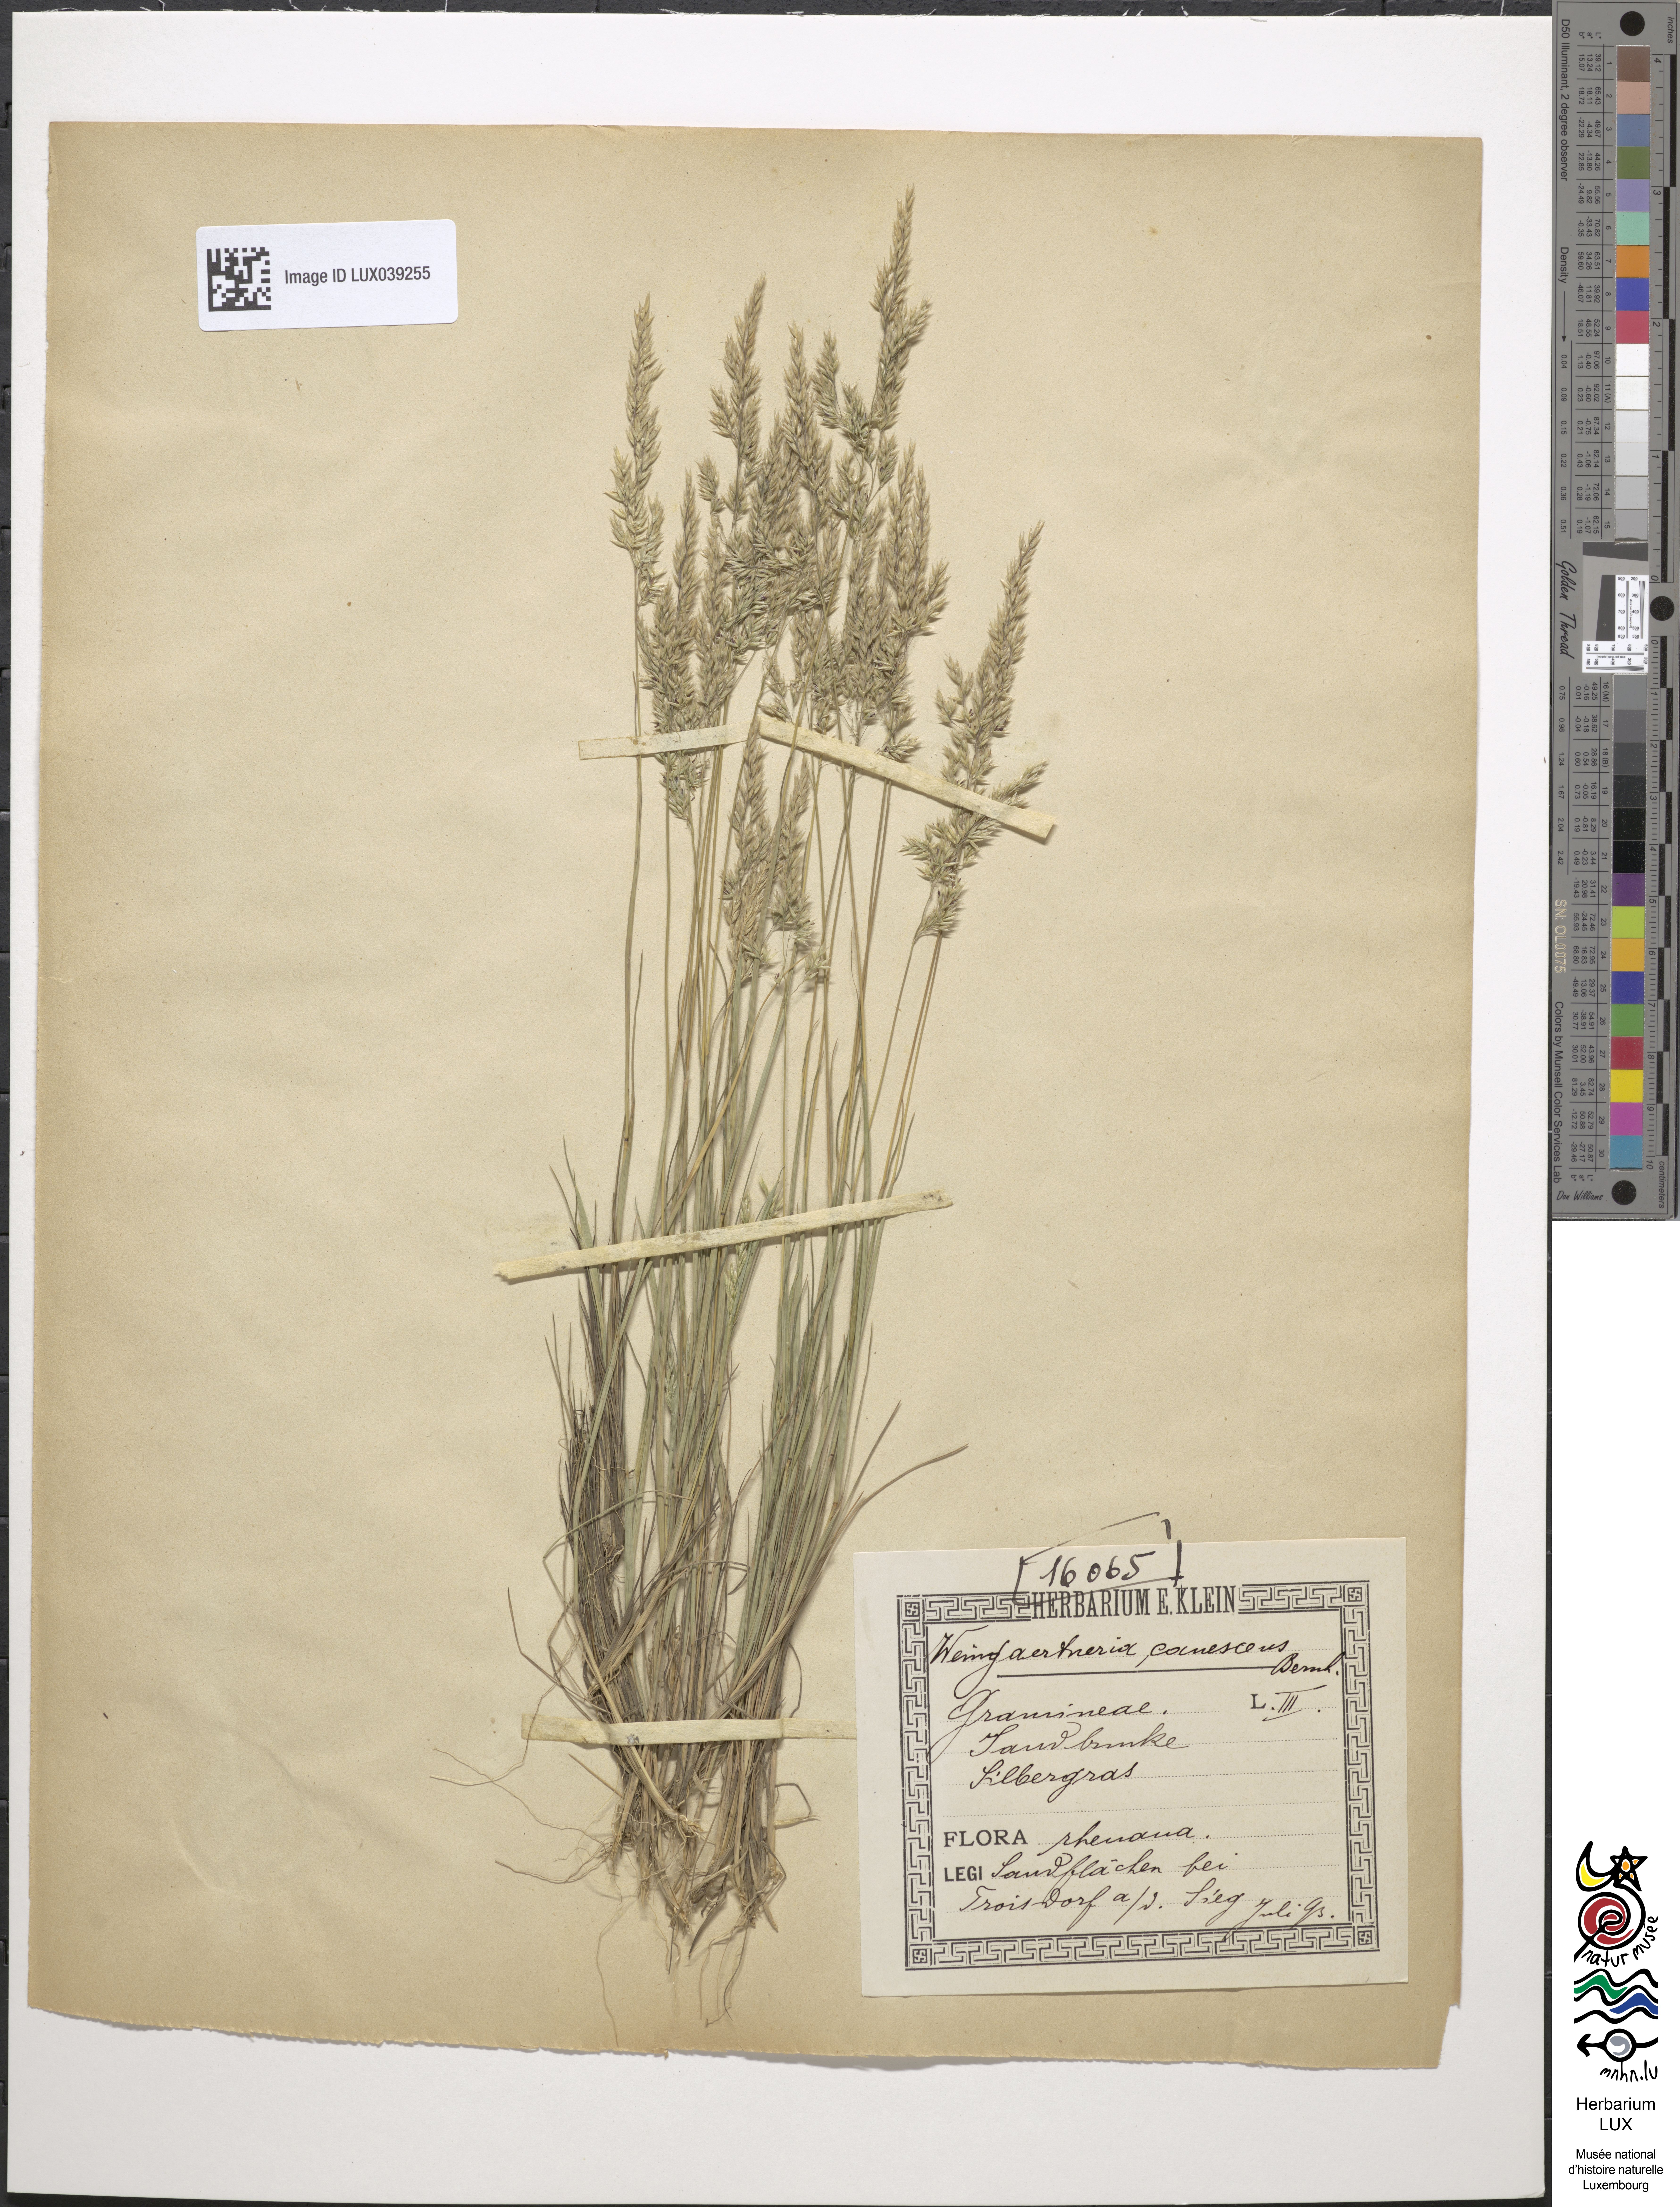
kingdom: Plantae
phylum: Tracheophyta
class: Liliopsida
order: Poales
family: Poaceae
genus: Corynephorus
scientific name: Corynephorus canescens
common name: Grey hair-grass
